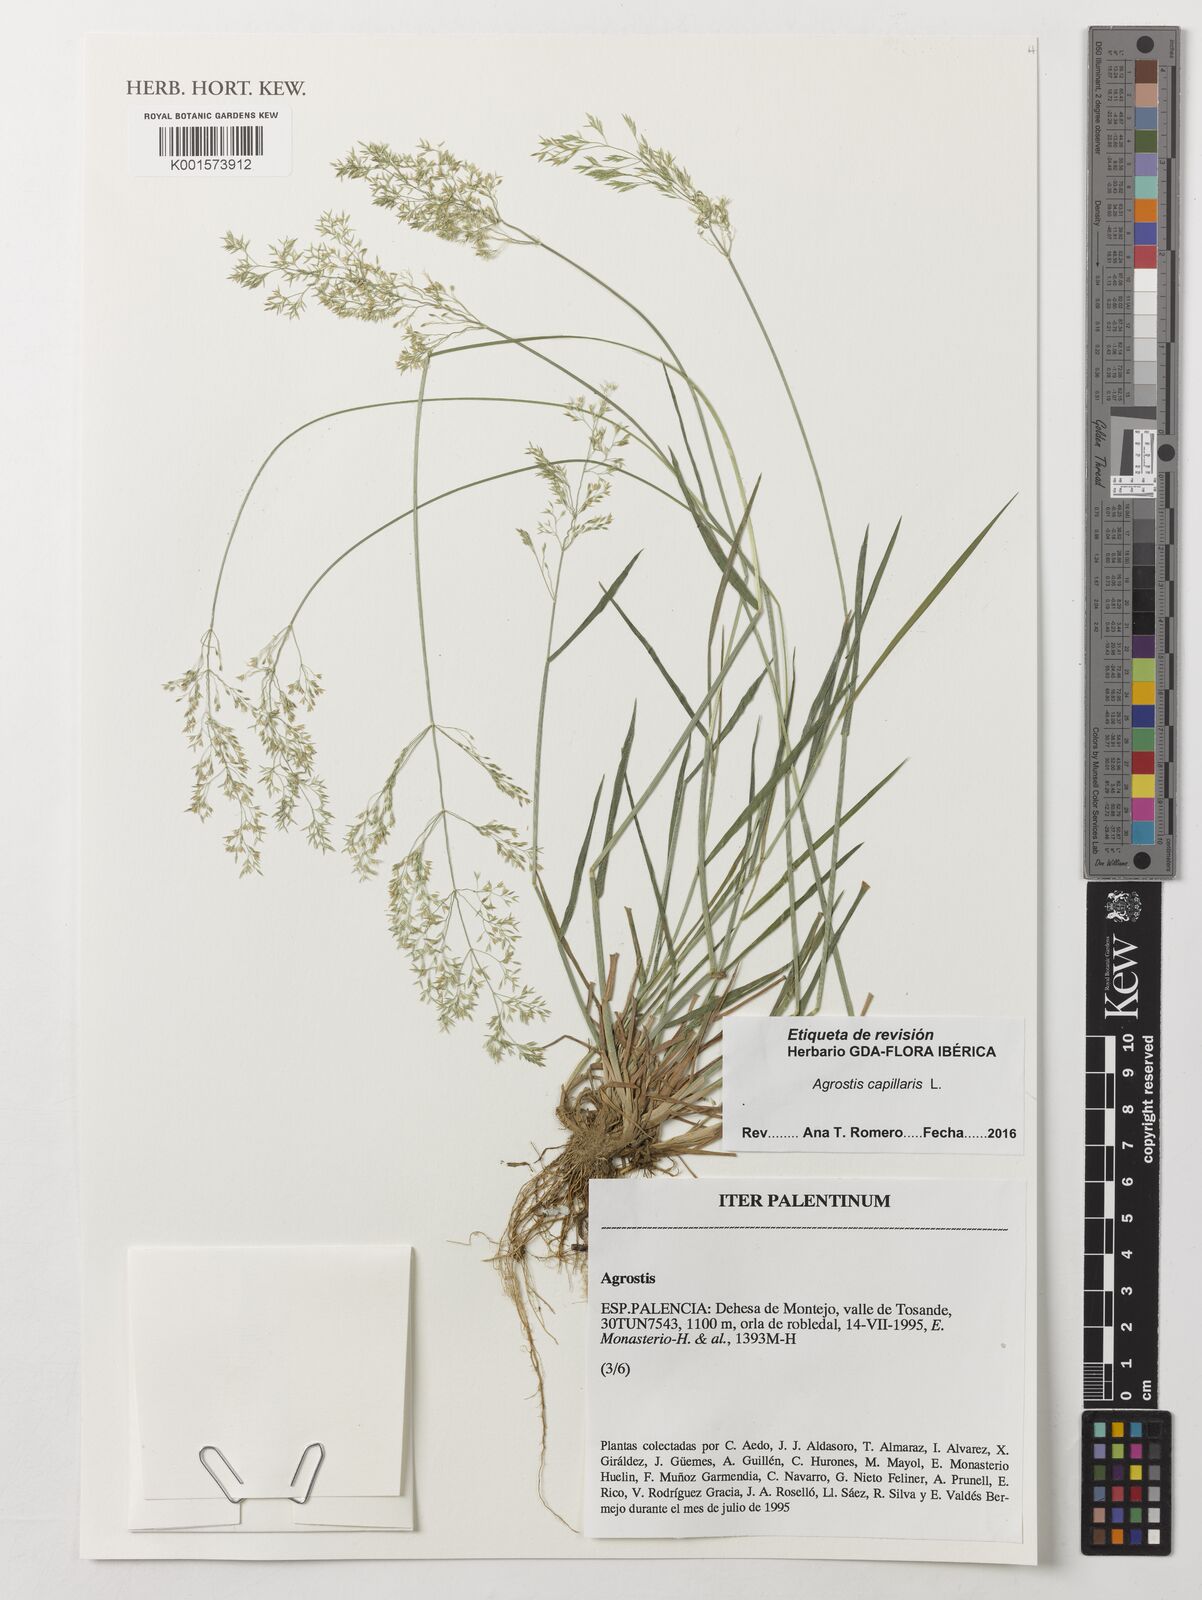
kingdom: Plantae
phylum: Tracheophyta
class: Liliopsida
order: Poales
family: Poaceae
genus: Agrostis
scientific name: Agrostis capillaris
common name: Colonial bentgrass
